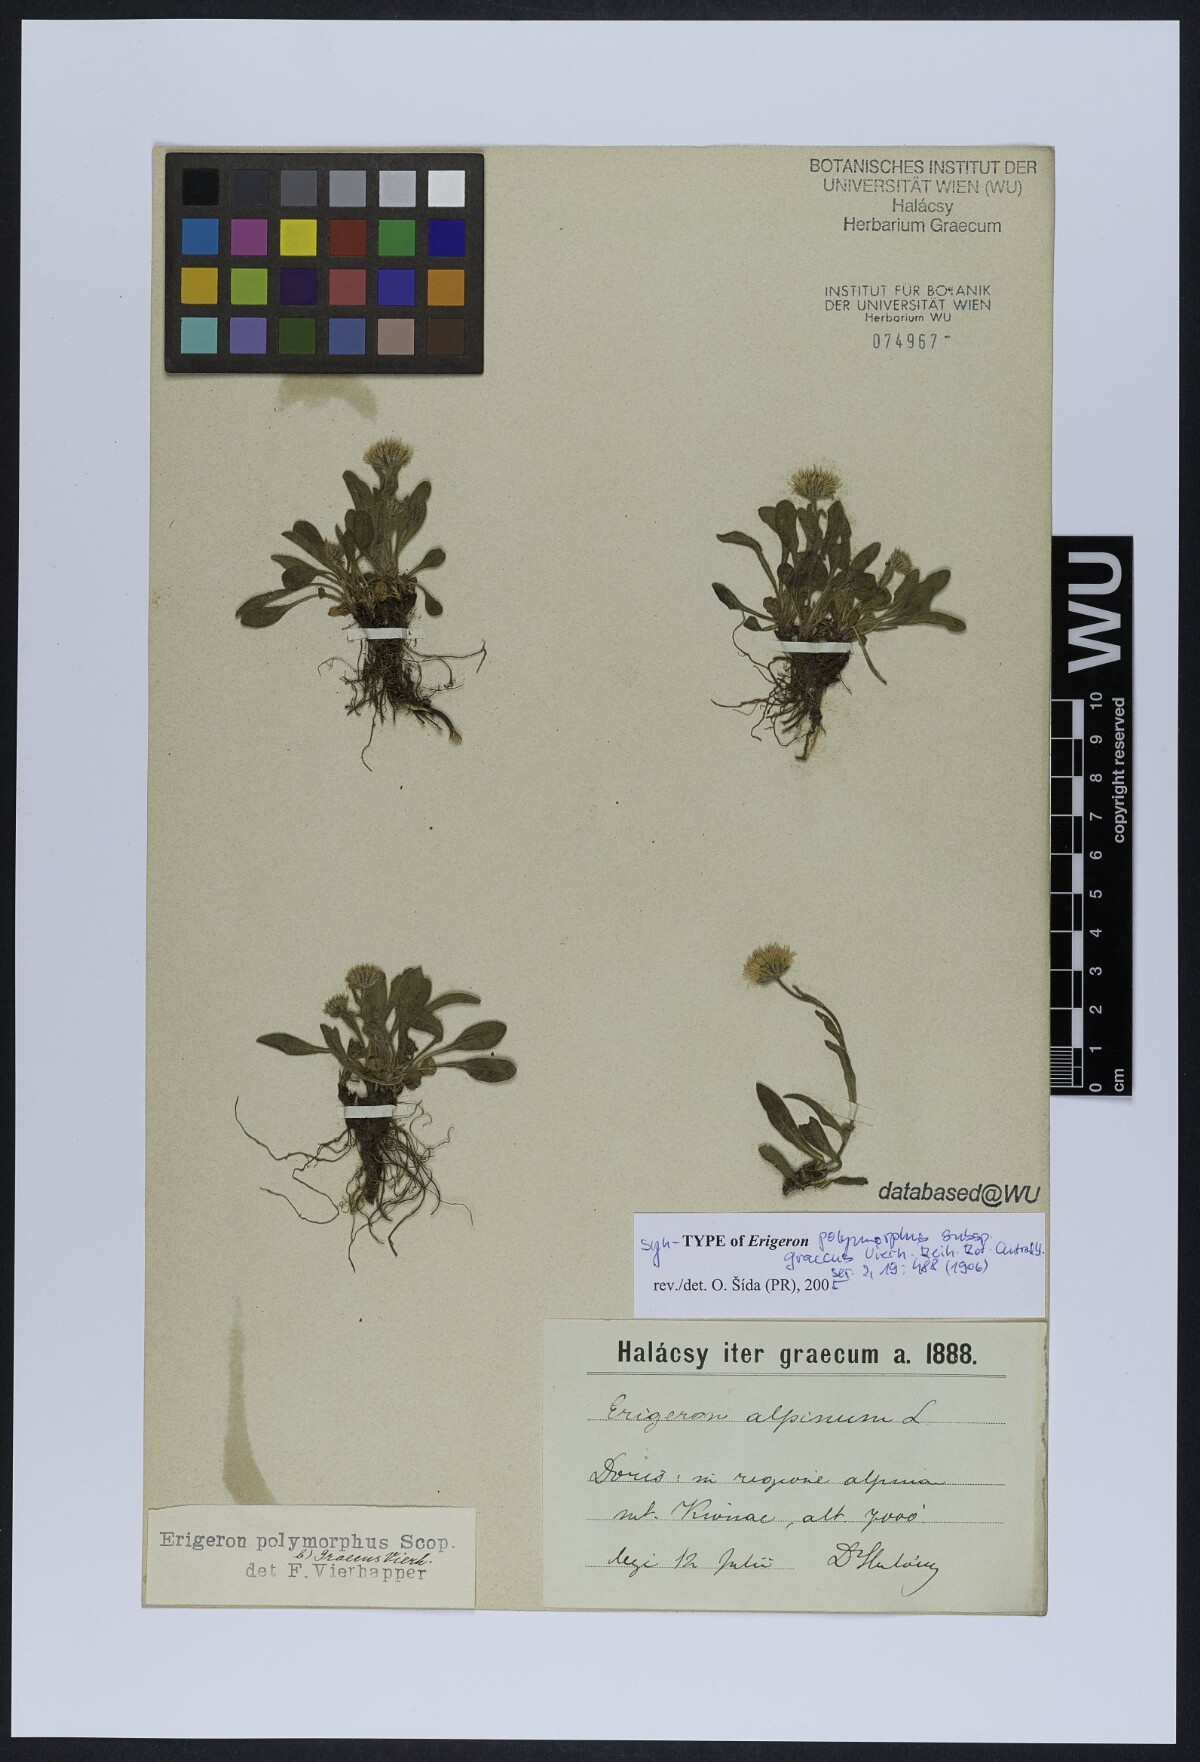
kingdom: Plantae
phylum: Tracheophyta
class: Magnoliopsida
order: Asterales
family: Asteraceae
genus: Erigeron
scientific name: Erigeron glabratus
